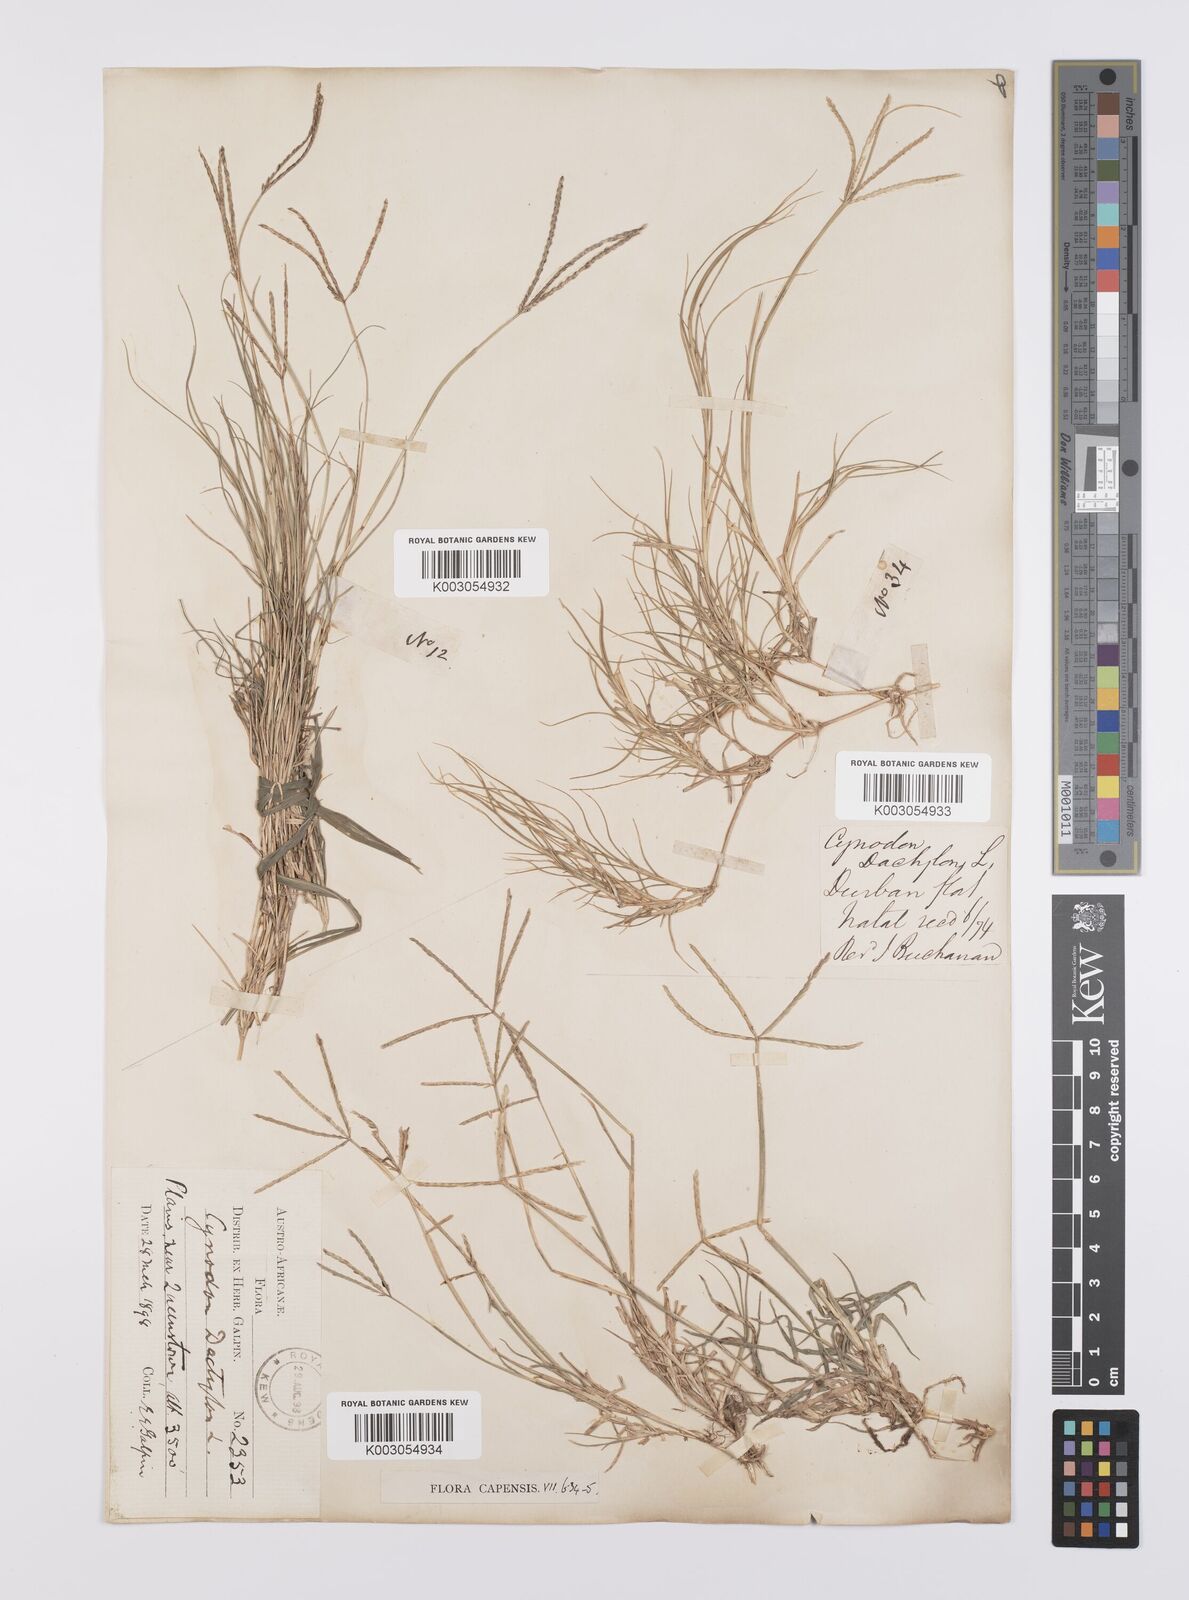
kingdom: Plantae
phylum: Tracheophyta
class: Liliopsida
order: Poales
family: Poaceae
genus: Cynodon
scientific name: Cynodon dactylon
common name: Bermuda grass
